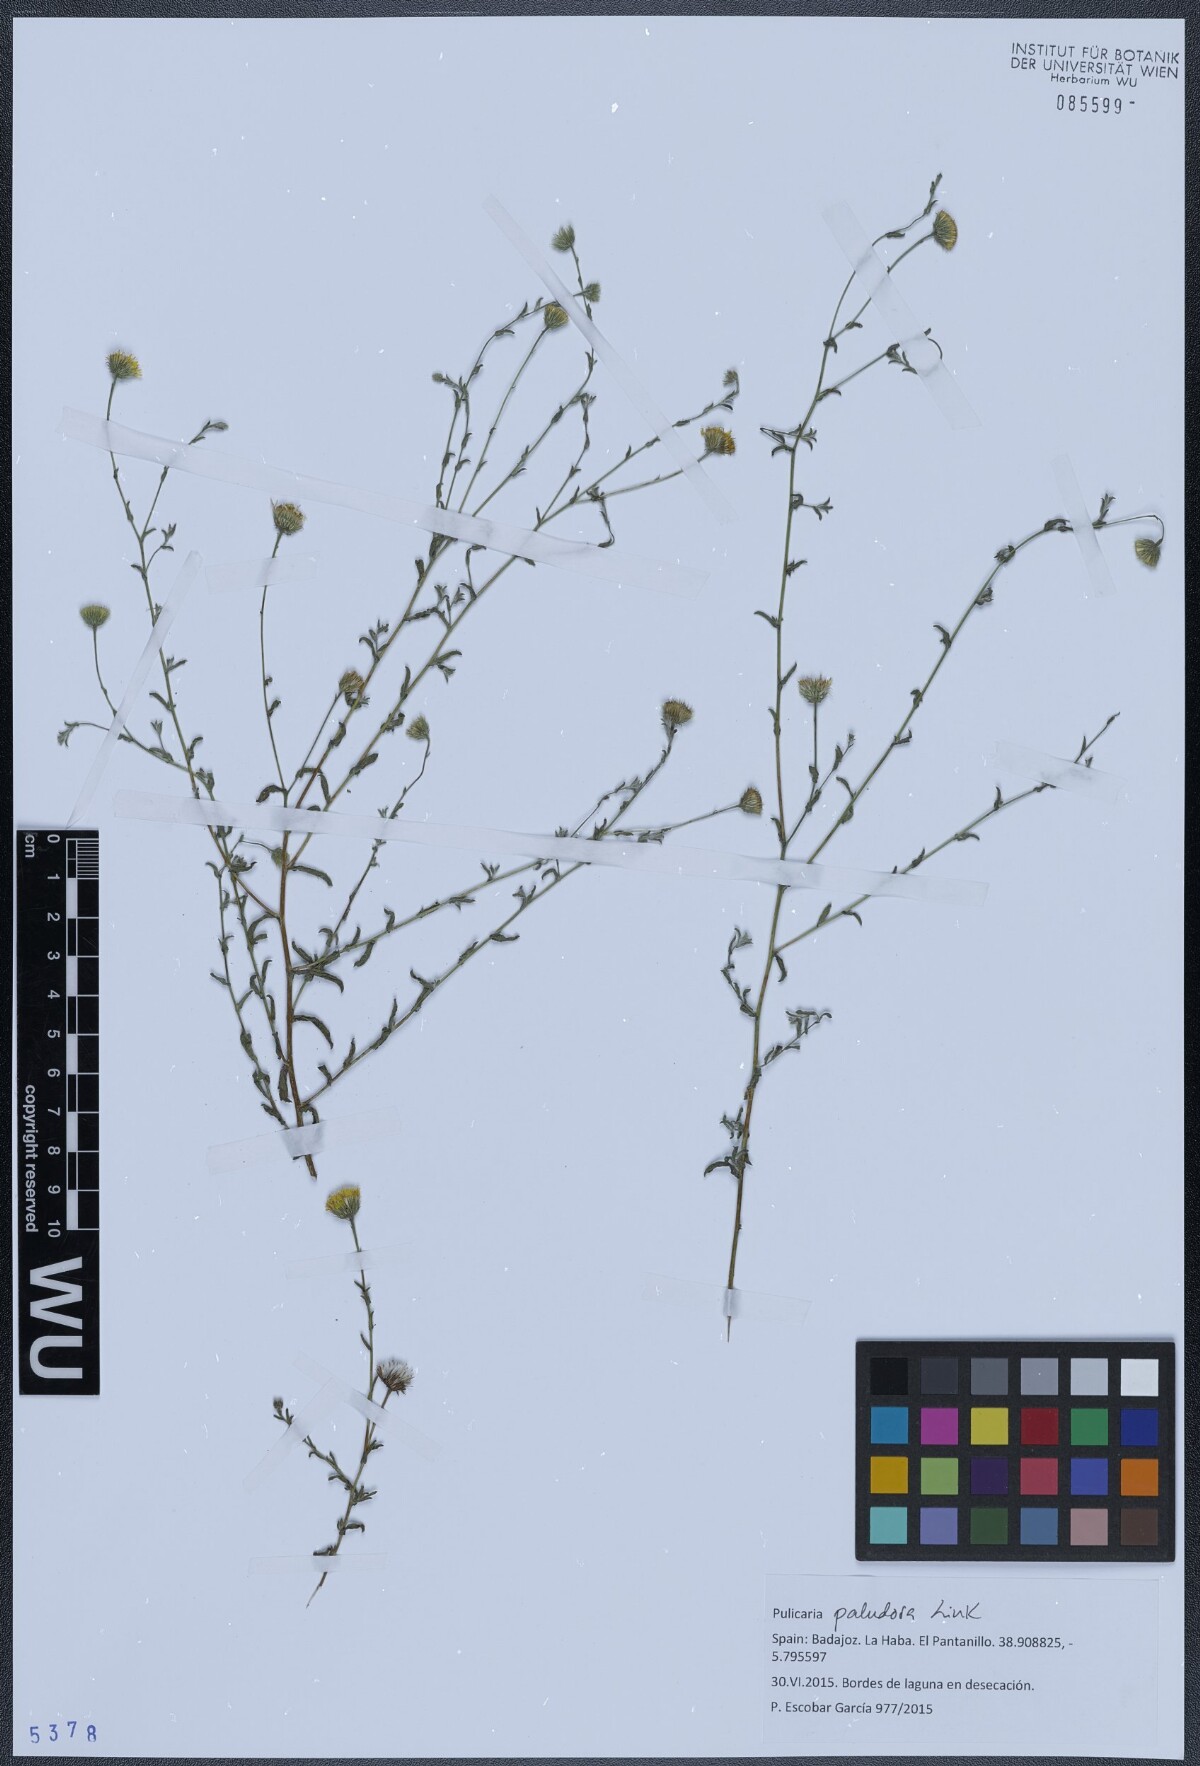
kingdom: Plantae
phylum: Tracheophyta
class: Magnoliopsida
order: Asterales
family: Asteraceae
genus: Pulicaria
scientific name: Pulicaria glandulosa
